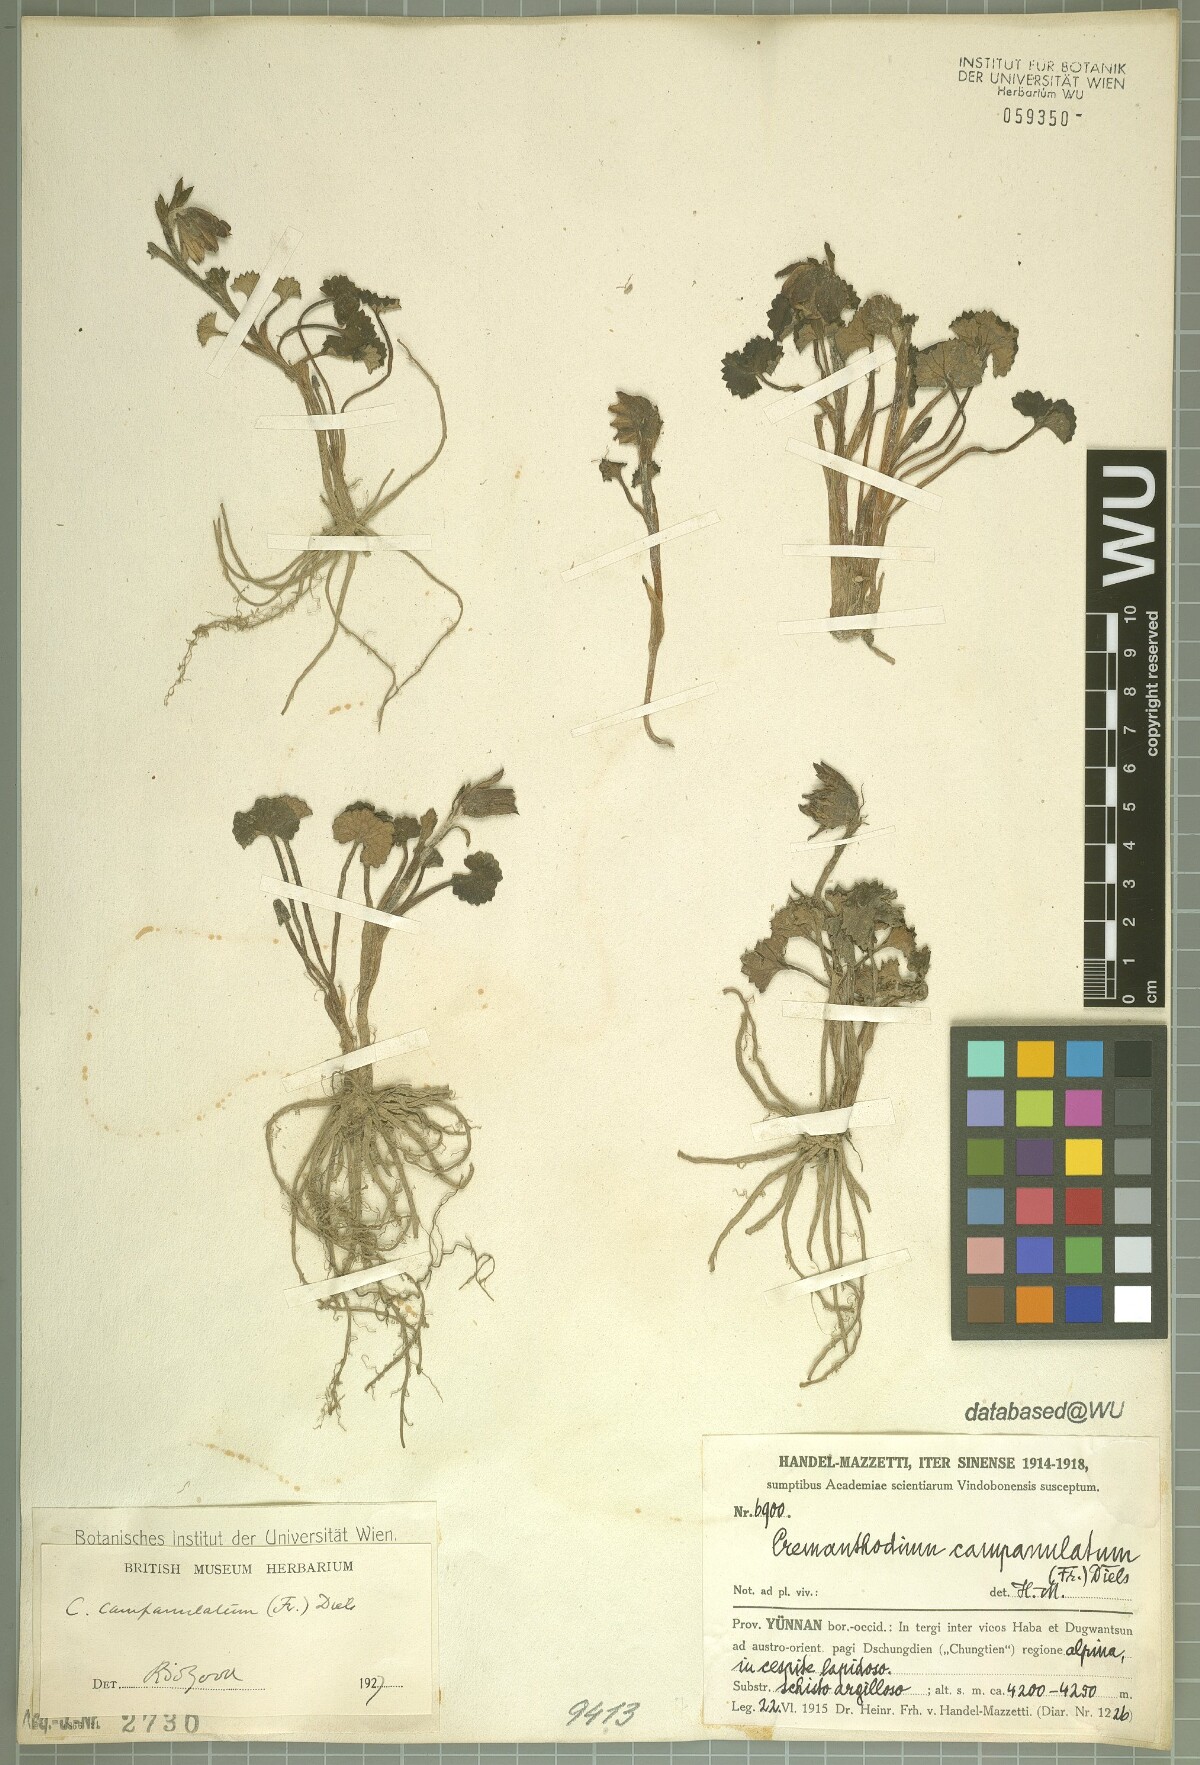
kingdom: Plantae
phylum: Tracheophyta
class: Magnoliopsida
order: Asterales
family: Asteraceae
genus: Cremanthodium
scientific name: Cremanthodium campanulatum
